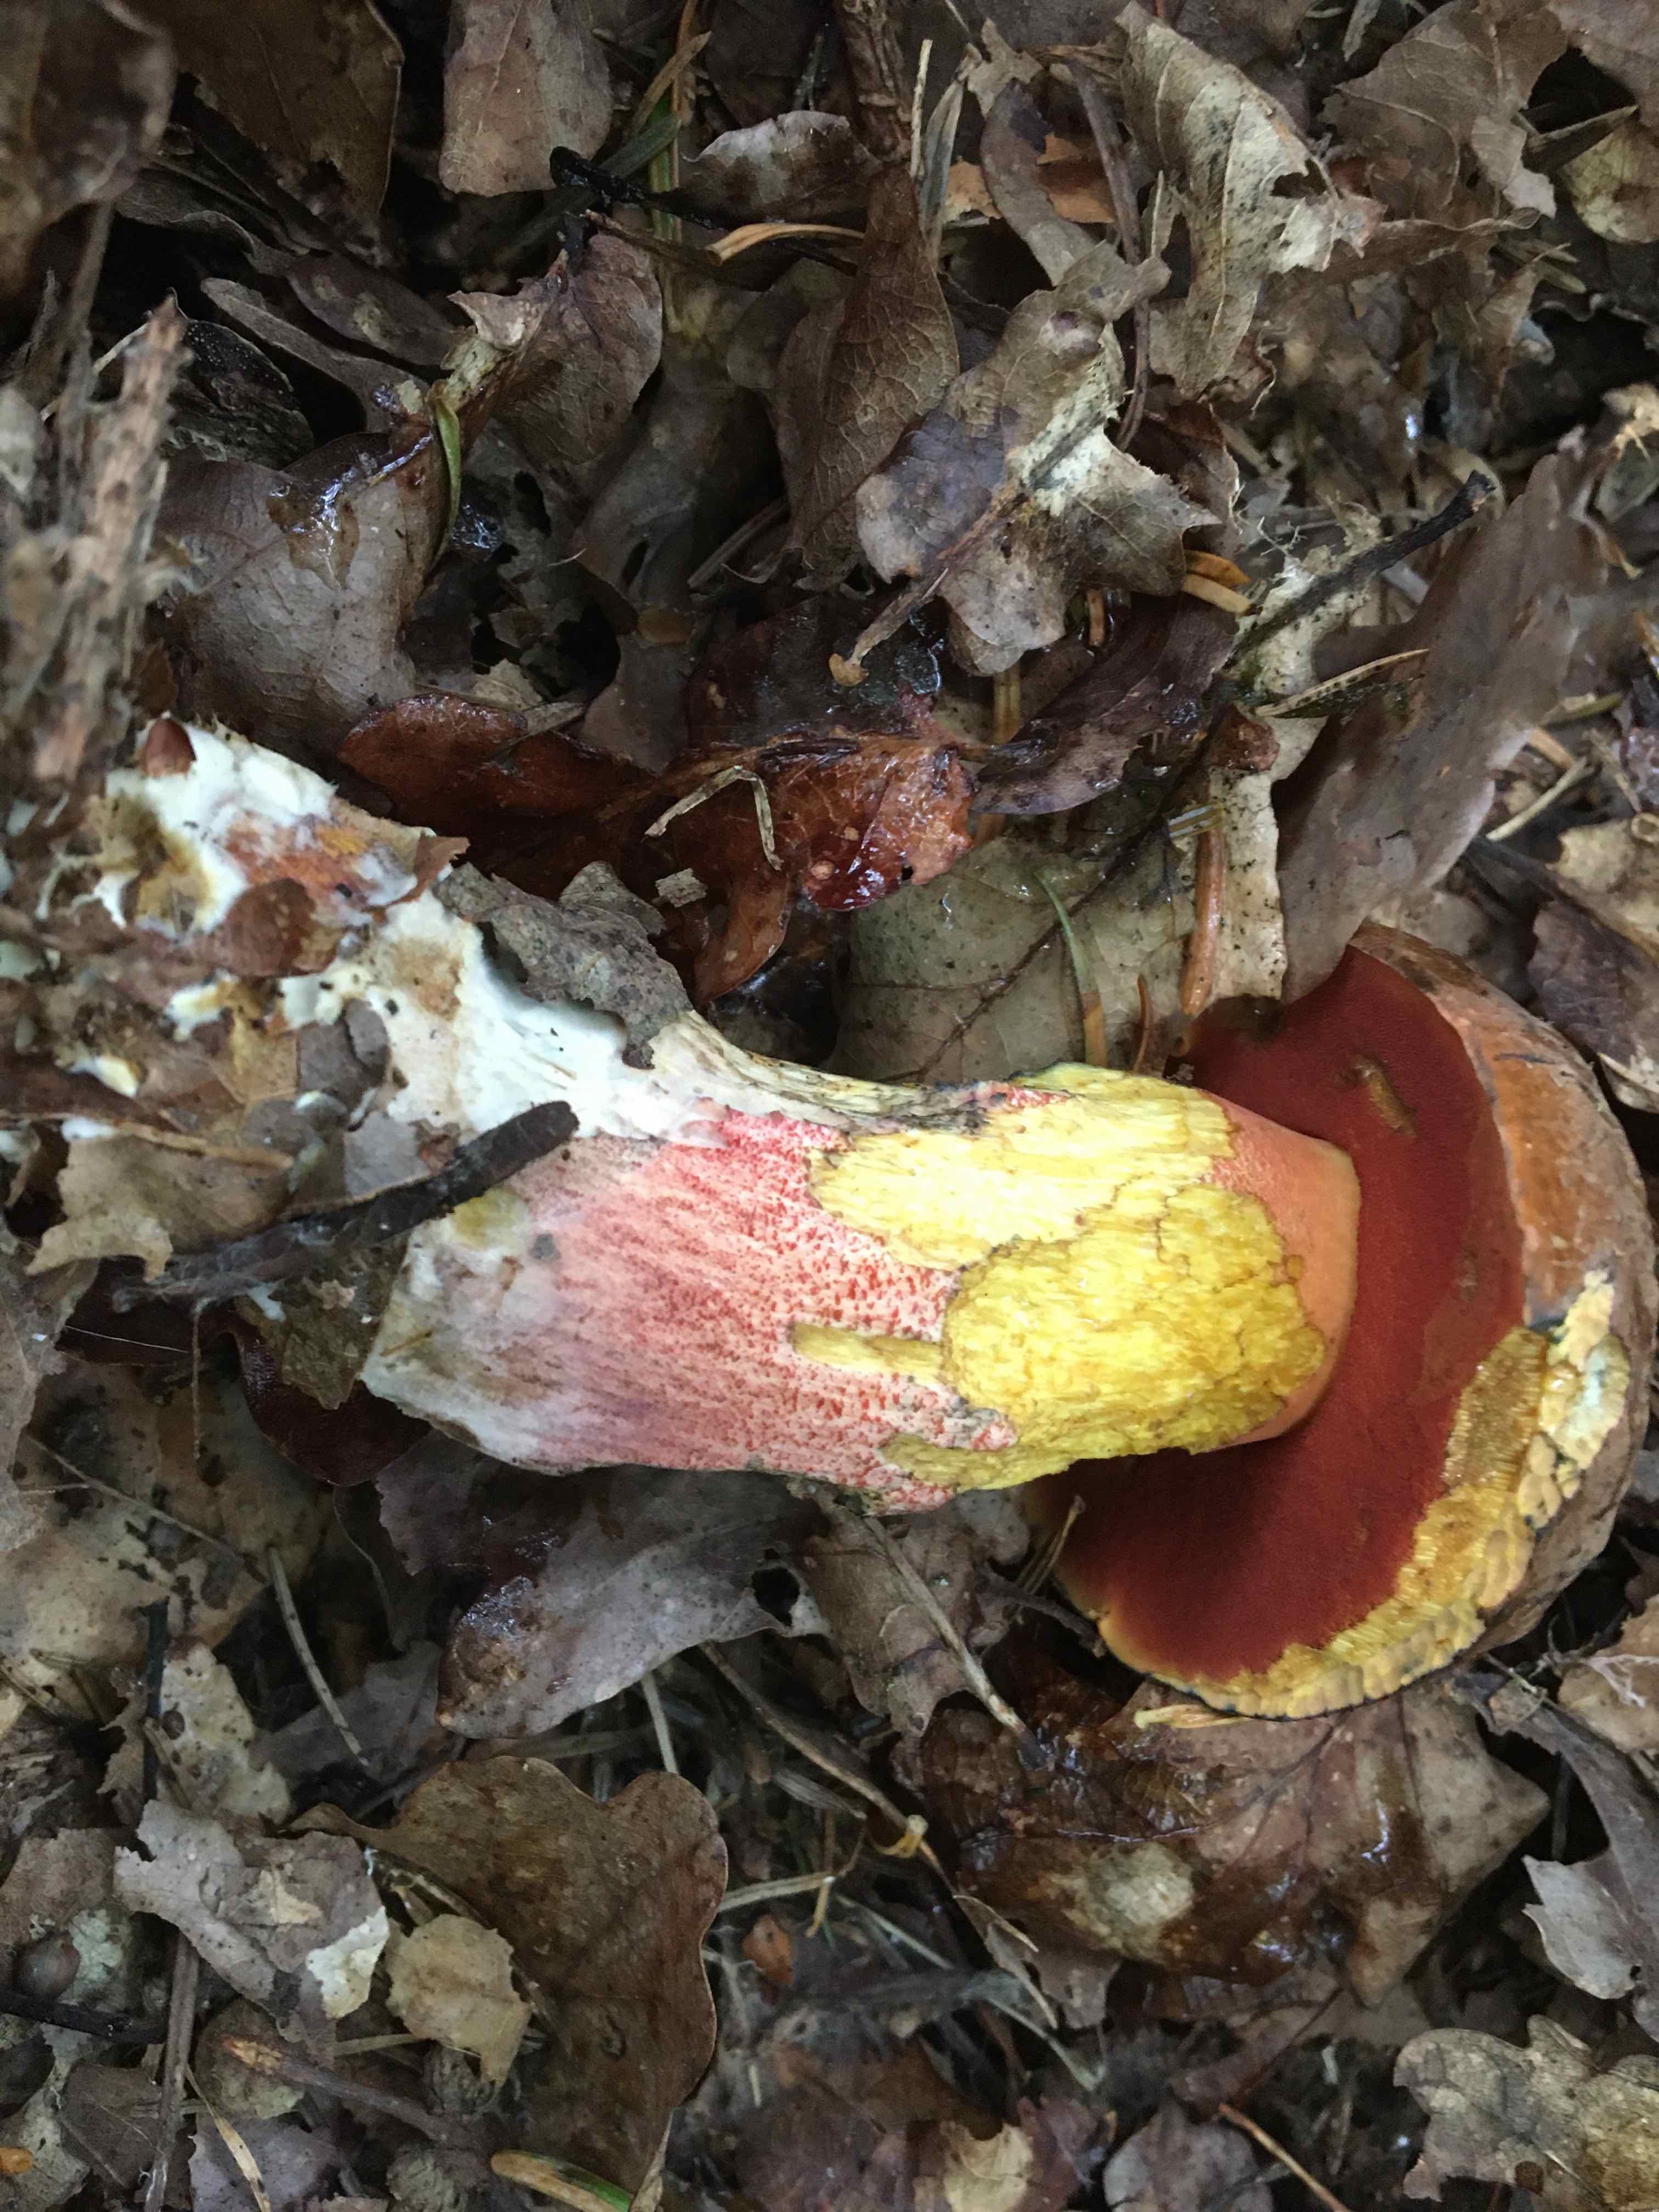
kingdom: Fungi
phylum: Basidiomycota
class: Agaricomycetes
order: Boletales
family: Boletaceae
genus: Neoboletus
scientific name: Neoboletus erythropus
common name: punktstokket indigorørhat
